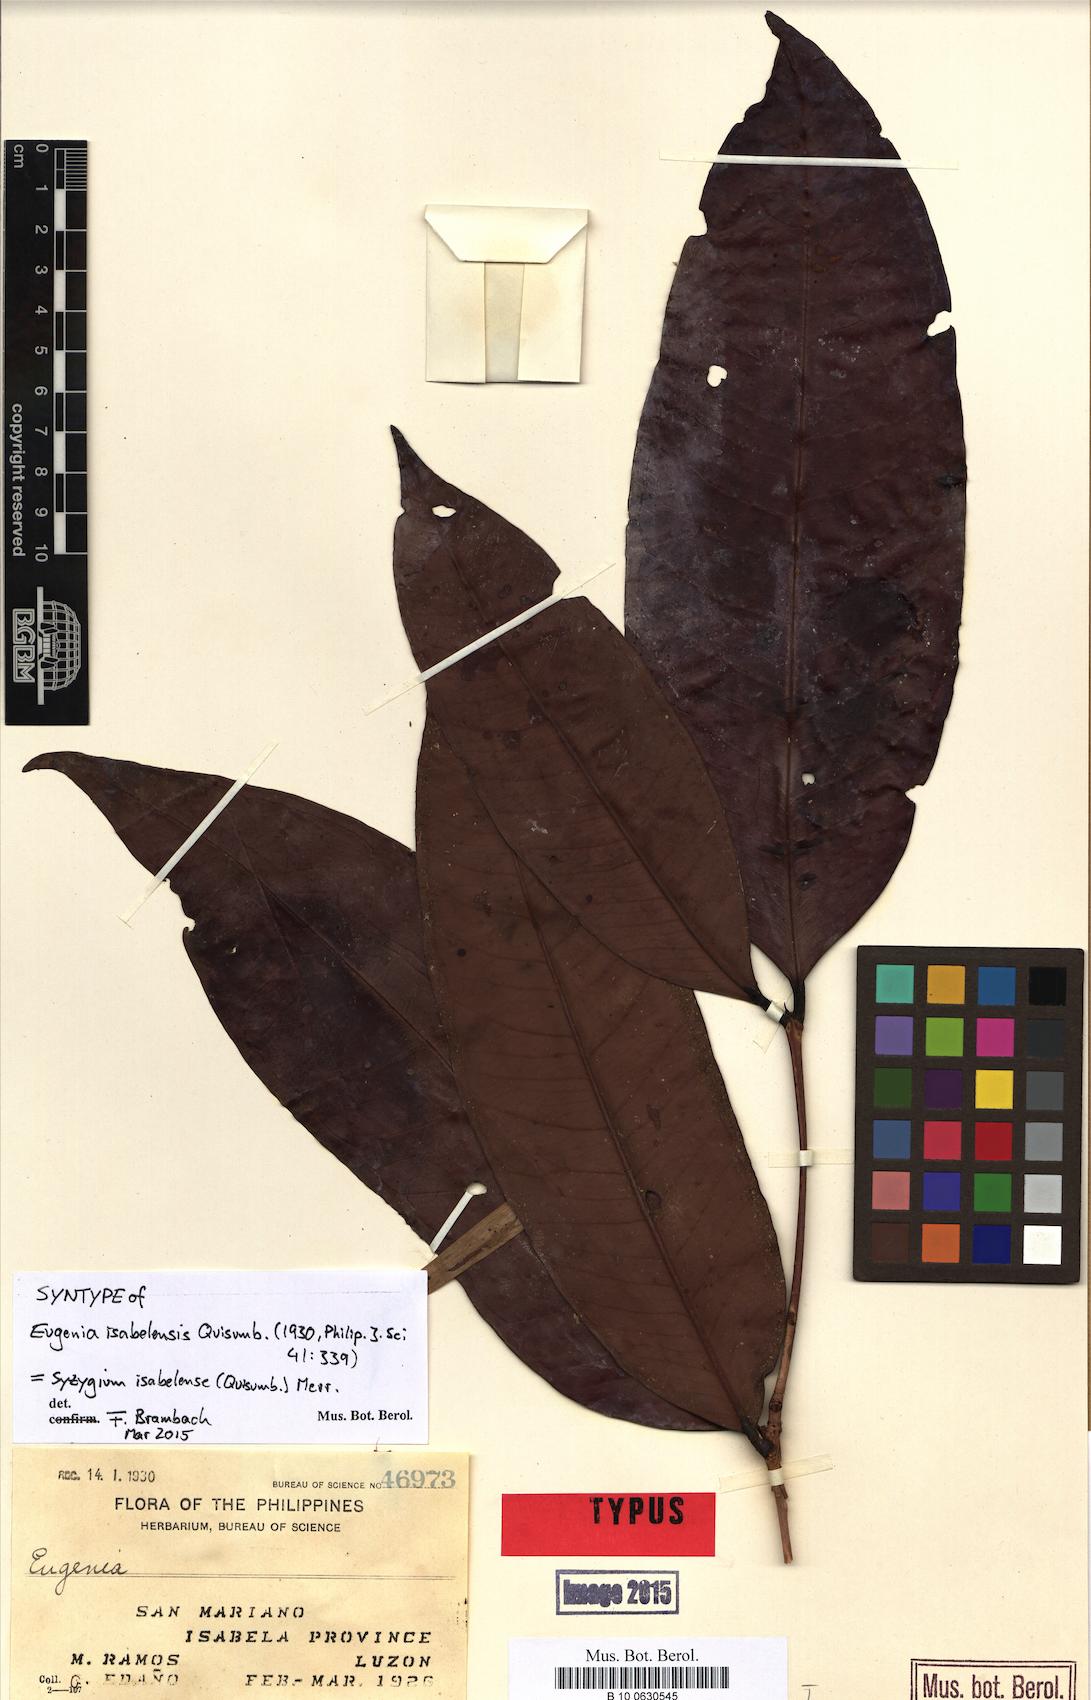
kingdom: Plantae
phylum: Tracheophyta
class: Magnoliopsida
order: Myrtales
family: Myrtaceae
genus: Syzygium
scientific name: Syzygium isabelense
